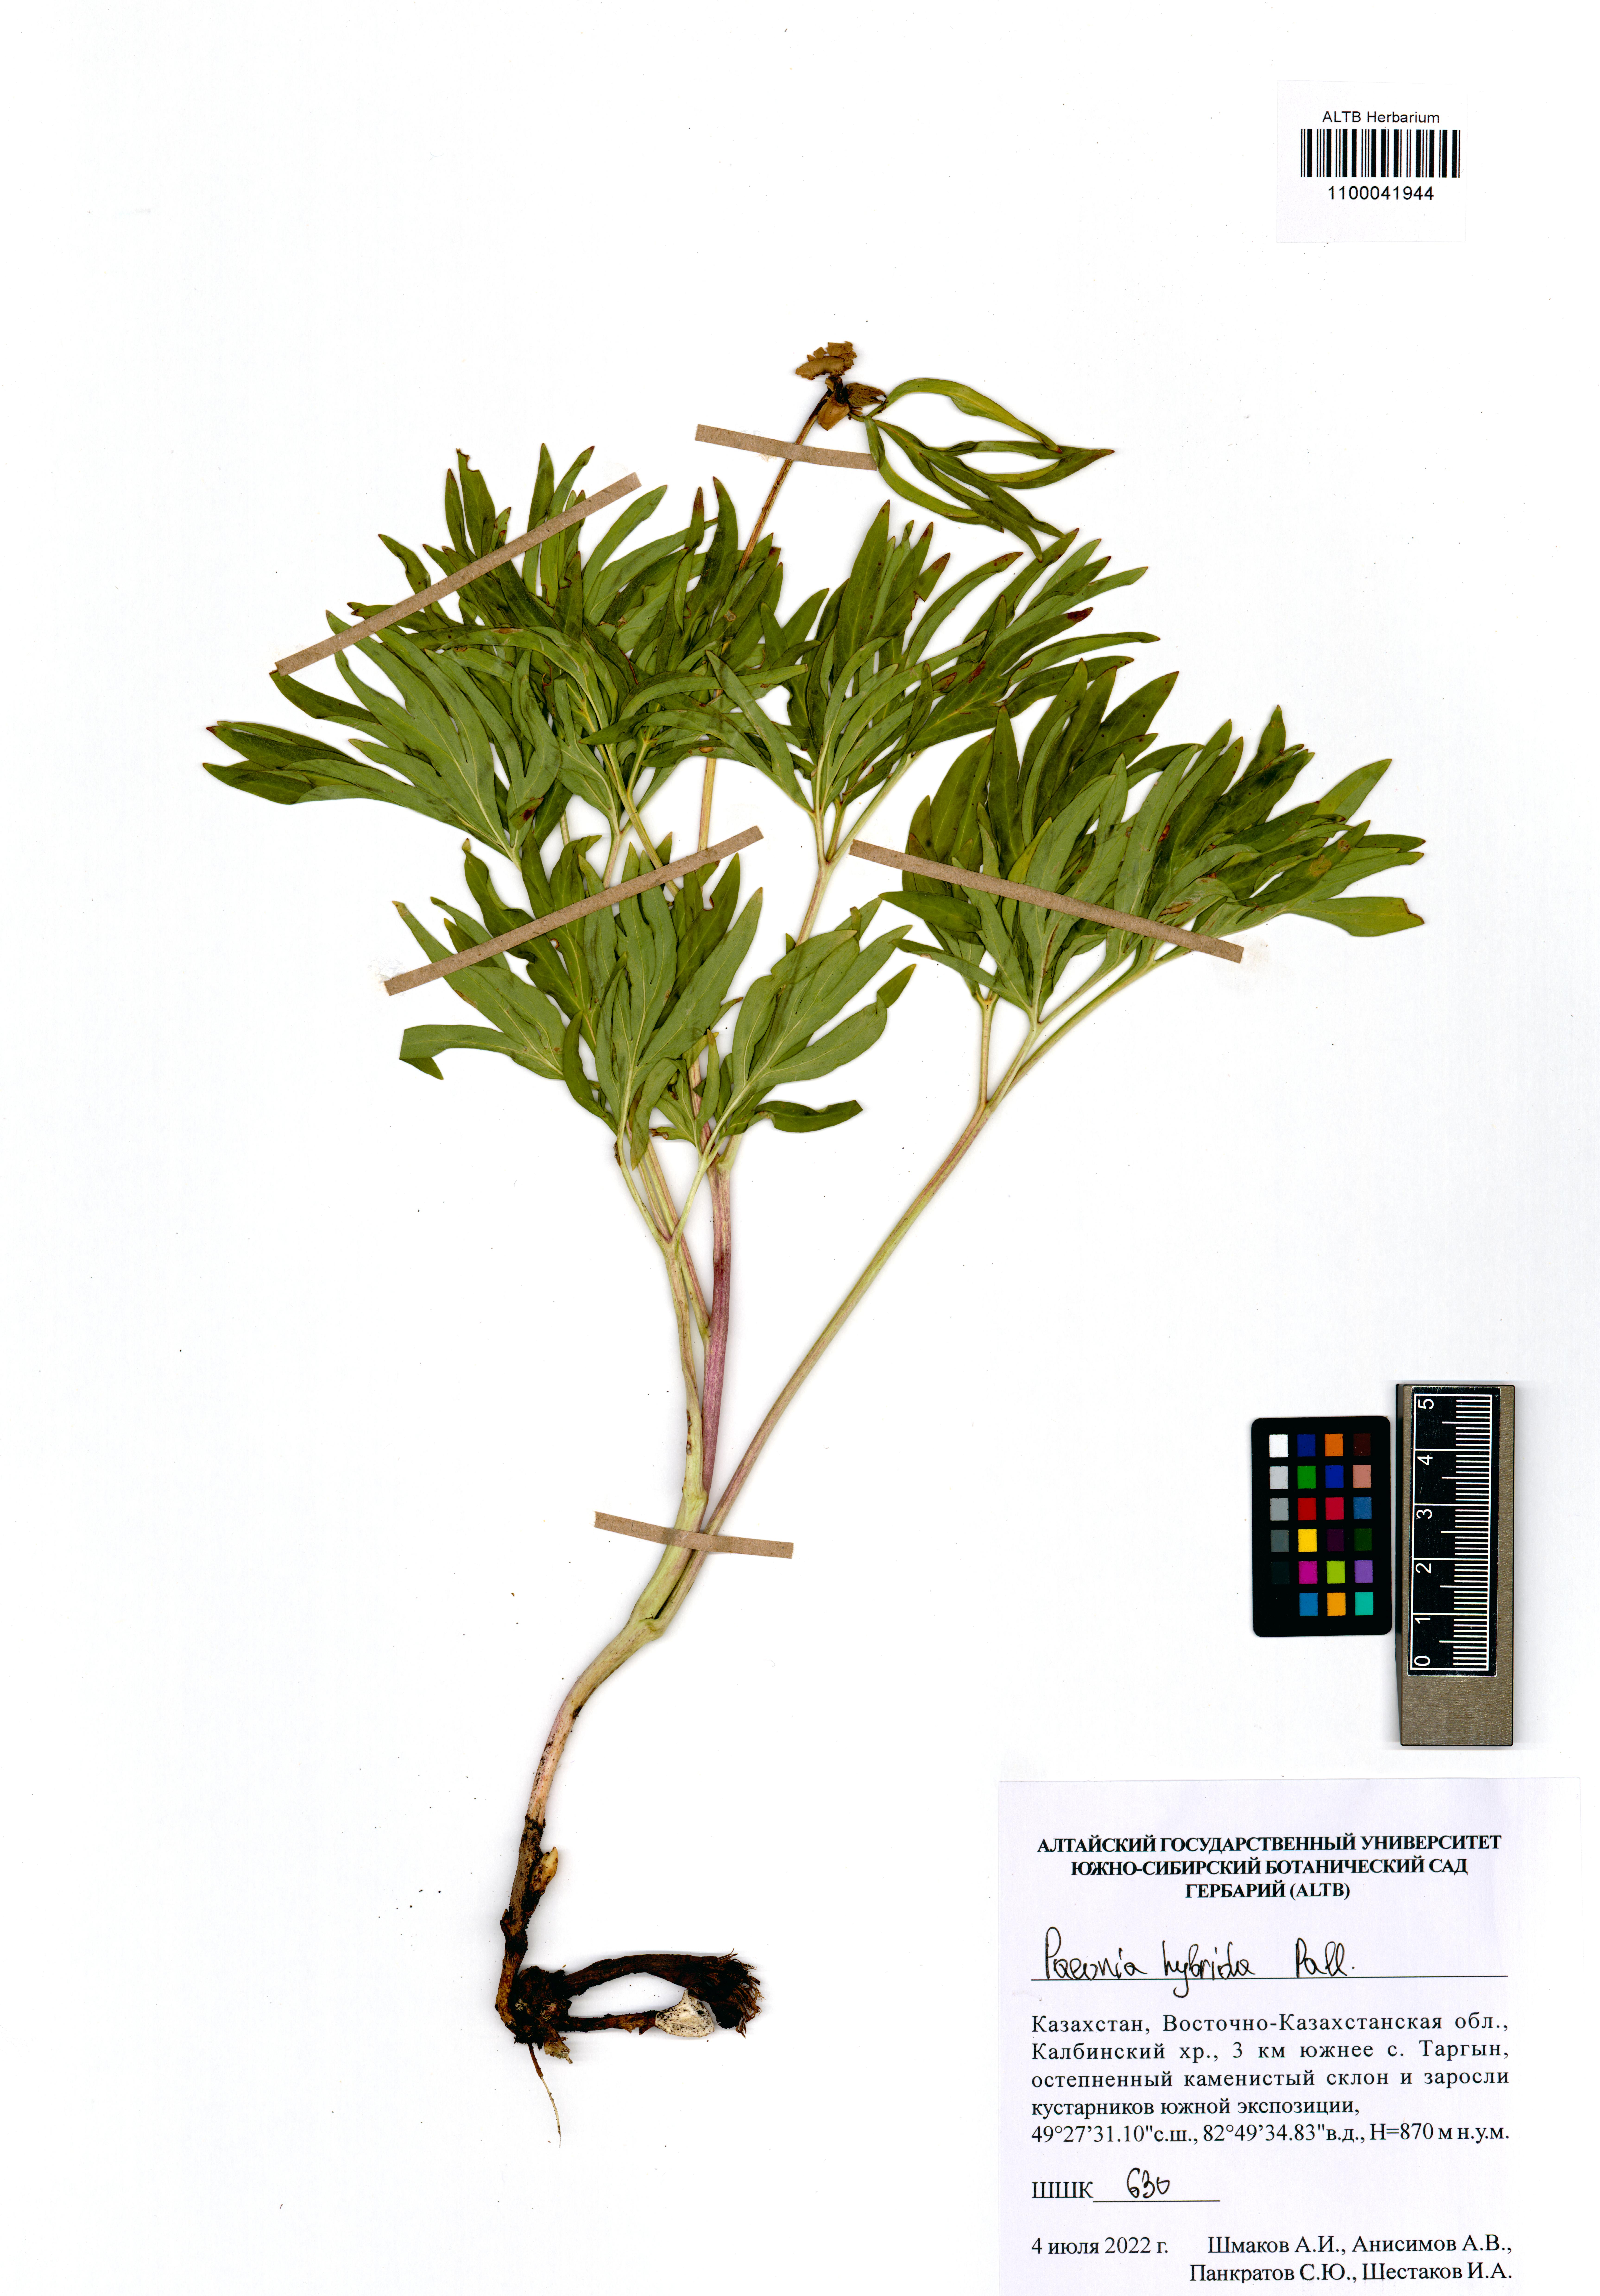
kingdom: Plantae
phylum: Tracheophyta
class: Magnoliopsida
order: Saxifragales
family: Paeoniaceae
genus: Paeonia
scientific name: Paeonia
